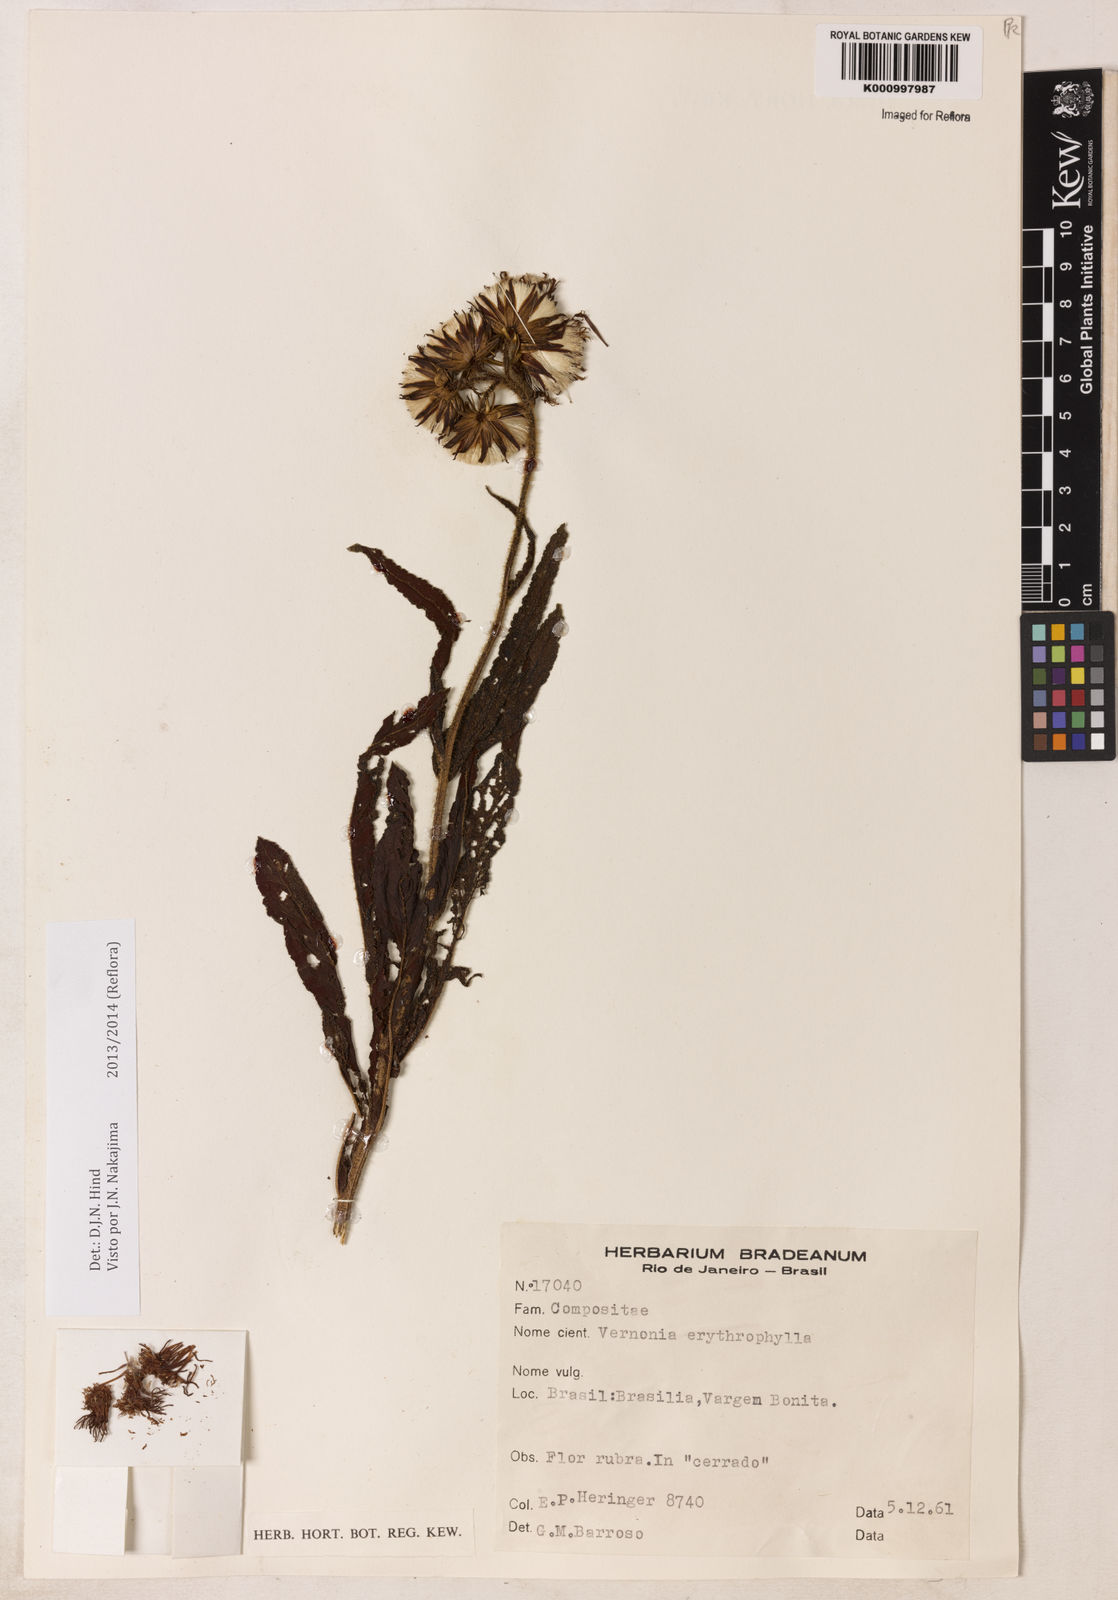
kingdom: Plantae
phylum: Tracheophyta
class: Magnoliopsida
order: Asterales
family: Asteraceae
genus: Lessingianthus
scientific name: Lessingianthus erythrophilus
